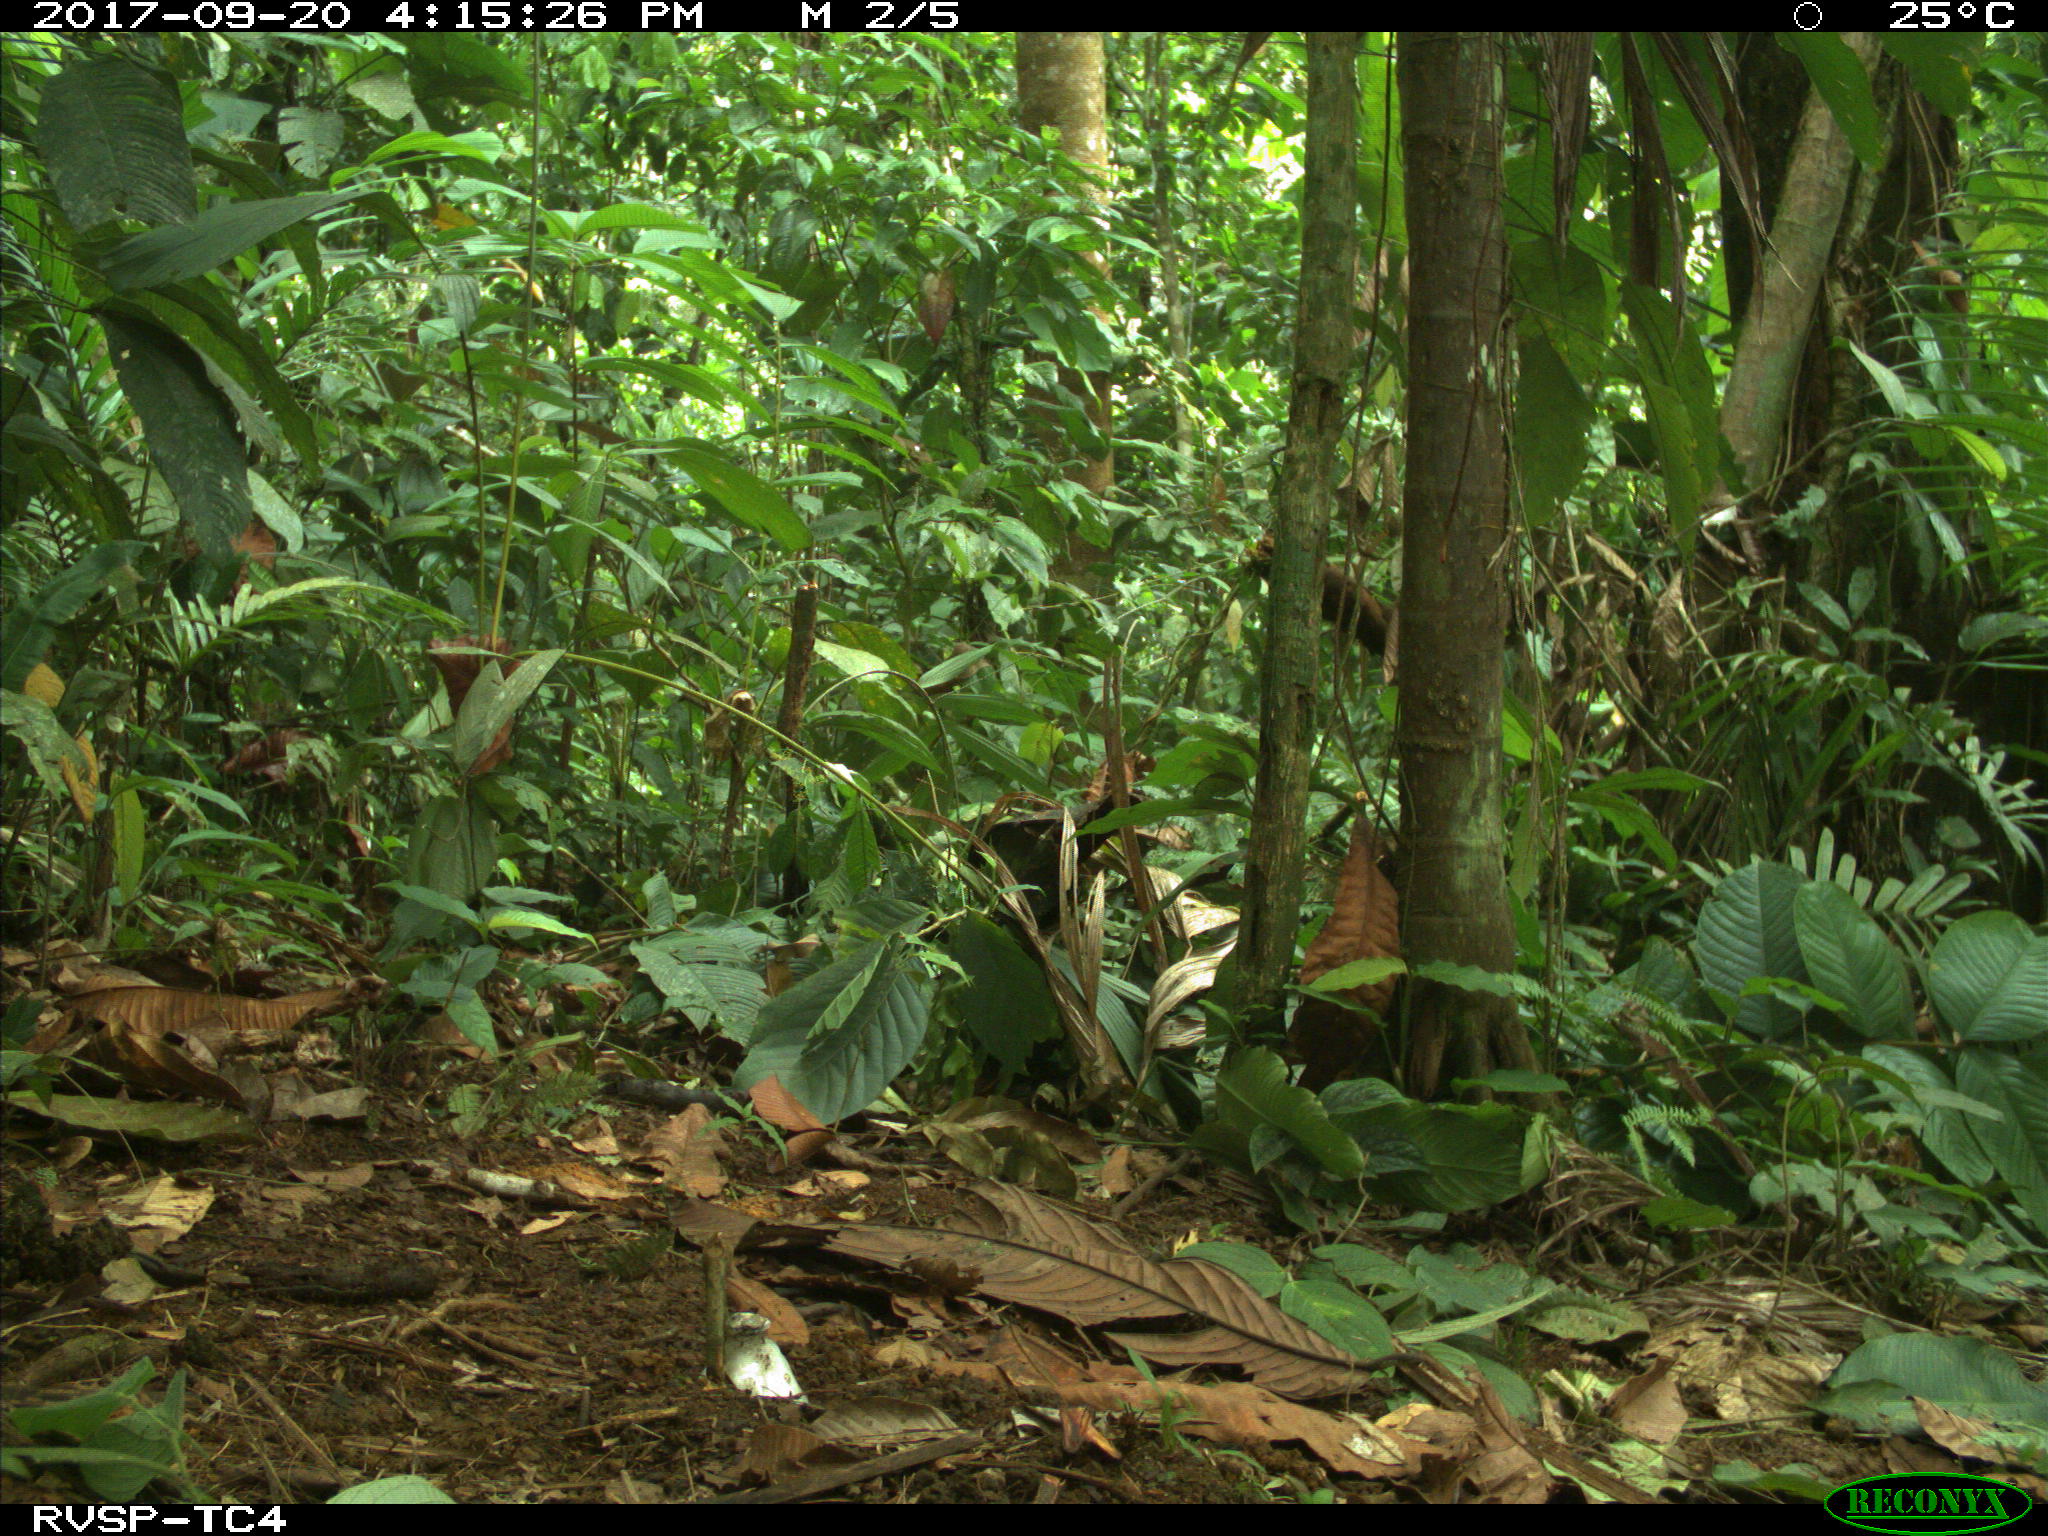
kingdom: Animalia
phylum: Chordata
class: Mammalia
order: Rodentia
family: Dasyproctidae
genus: Dasyprocta
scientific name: Dasyprocta punctata
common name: Central american agouti
